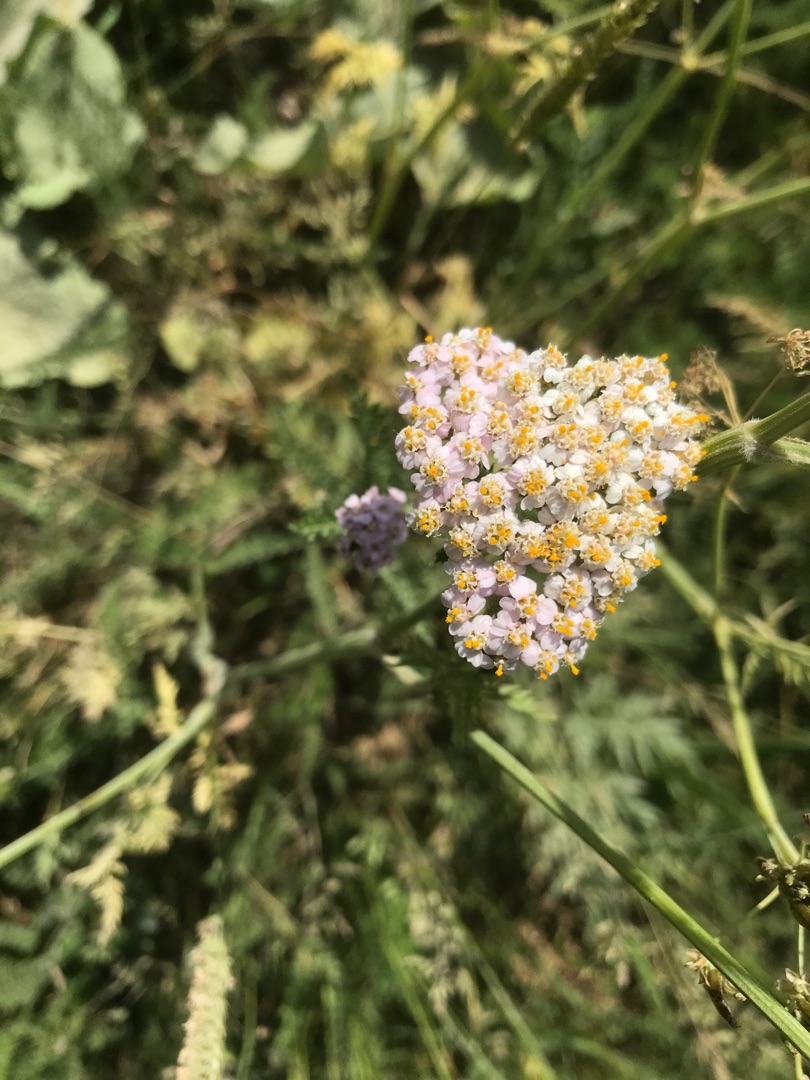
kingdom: Plantae
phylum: Tracheophyta
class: Magnoliopsida
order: Asterales
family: Asteraceae
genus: Achillea
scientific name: Achillea millefolium
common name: Almindelig røllike
